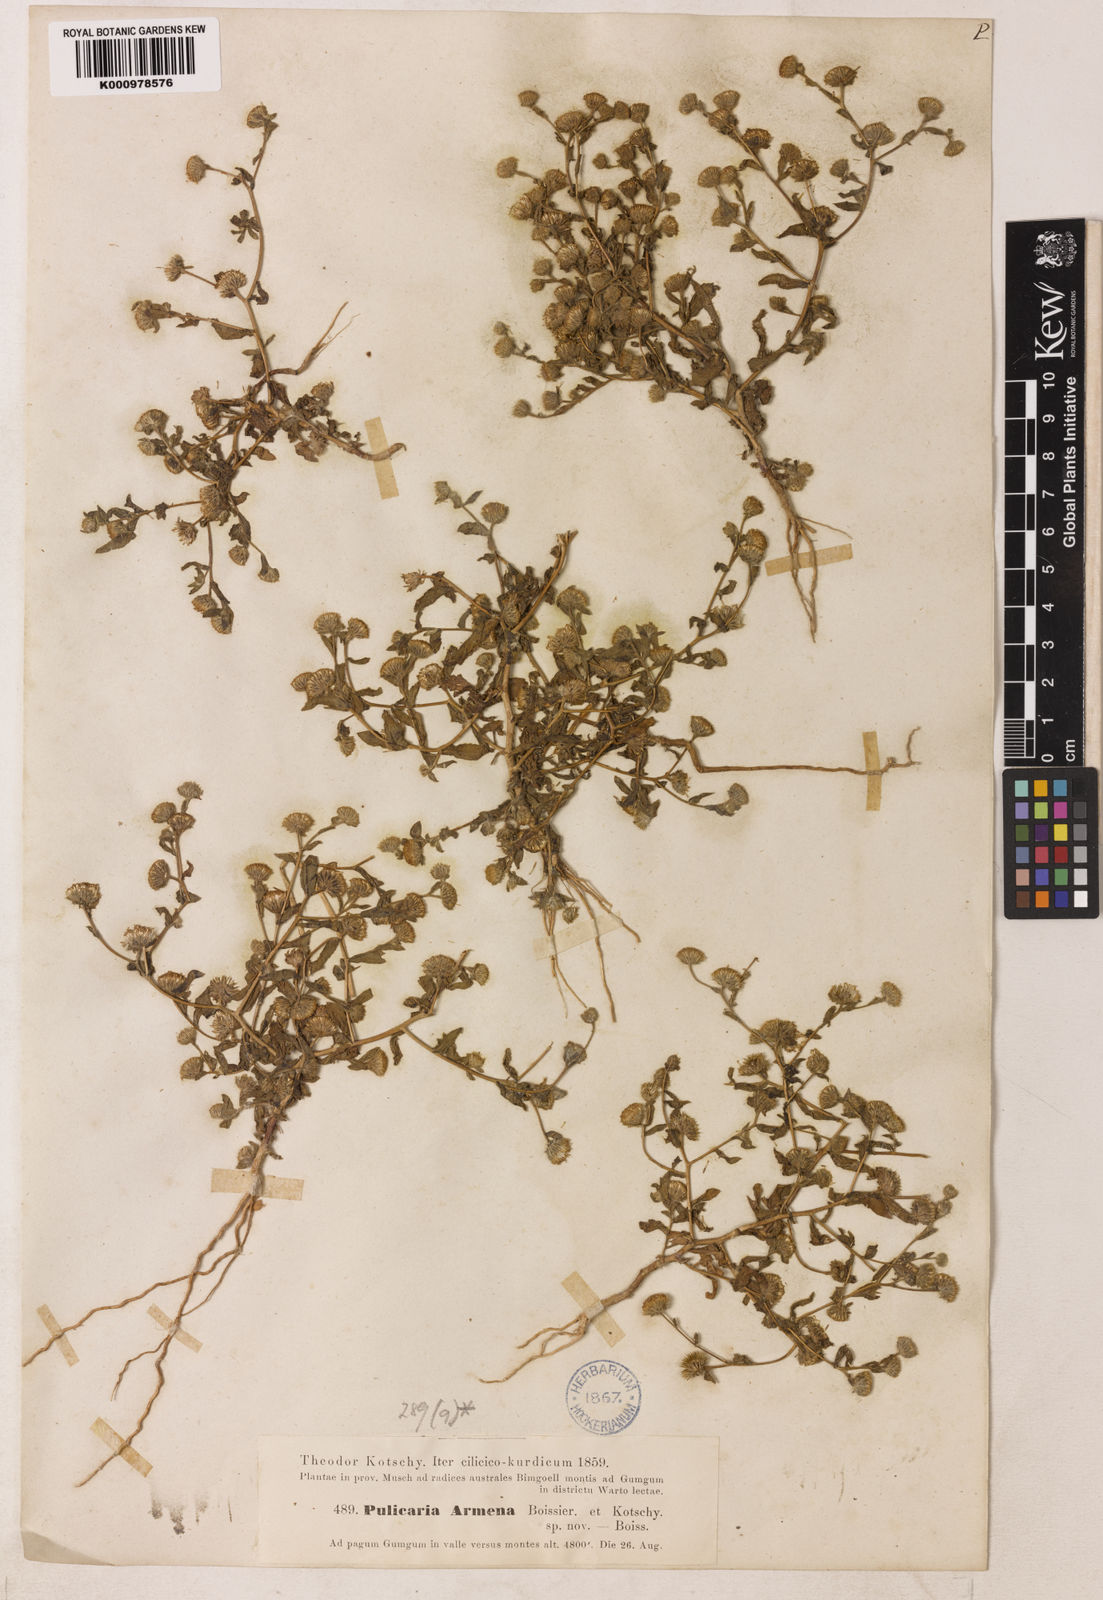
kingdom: Plantae
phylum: Tracheophyta
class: Magnoliopsida
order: Asterales
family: Asteraceae
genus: Pulicaria
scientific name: Pulicaria armena
